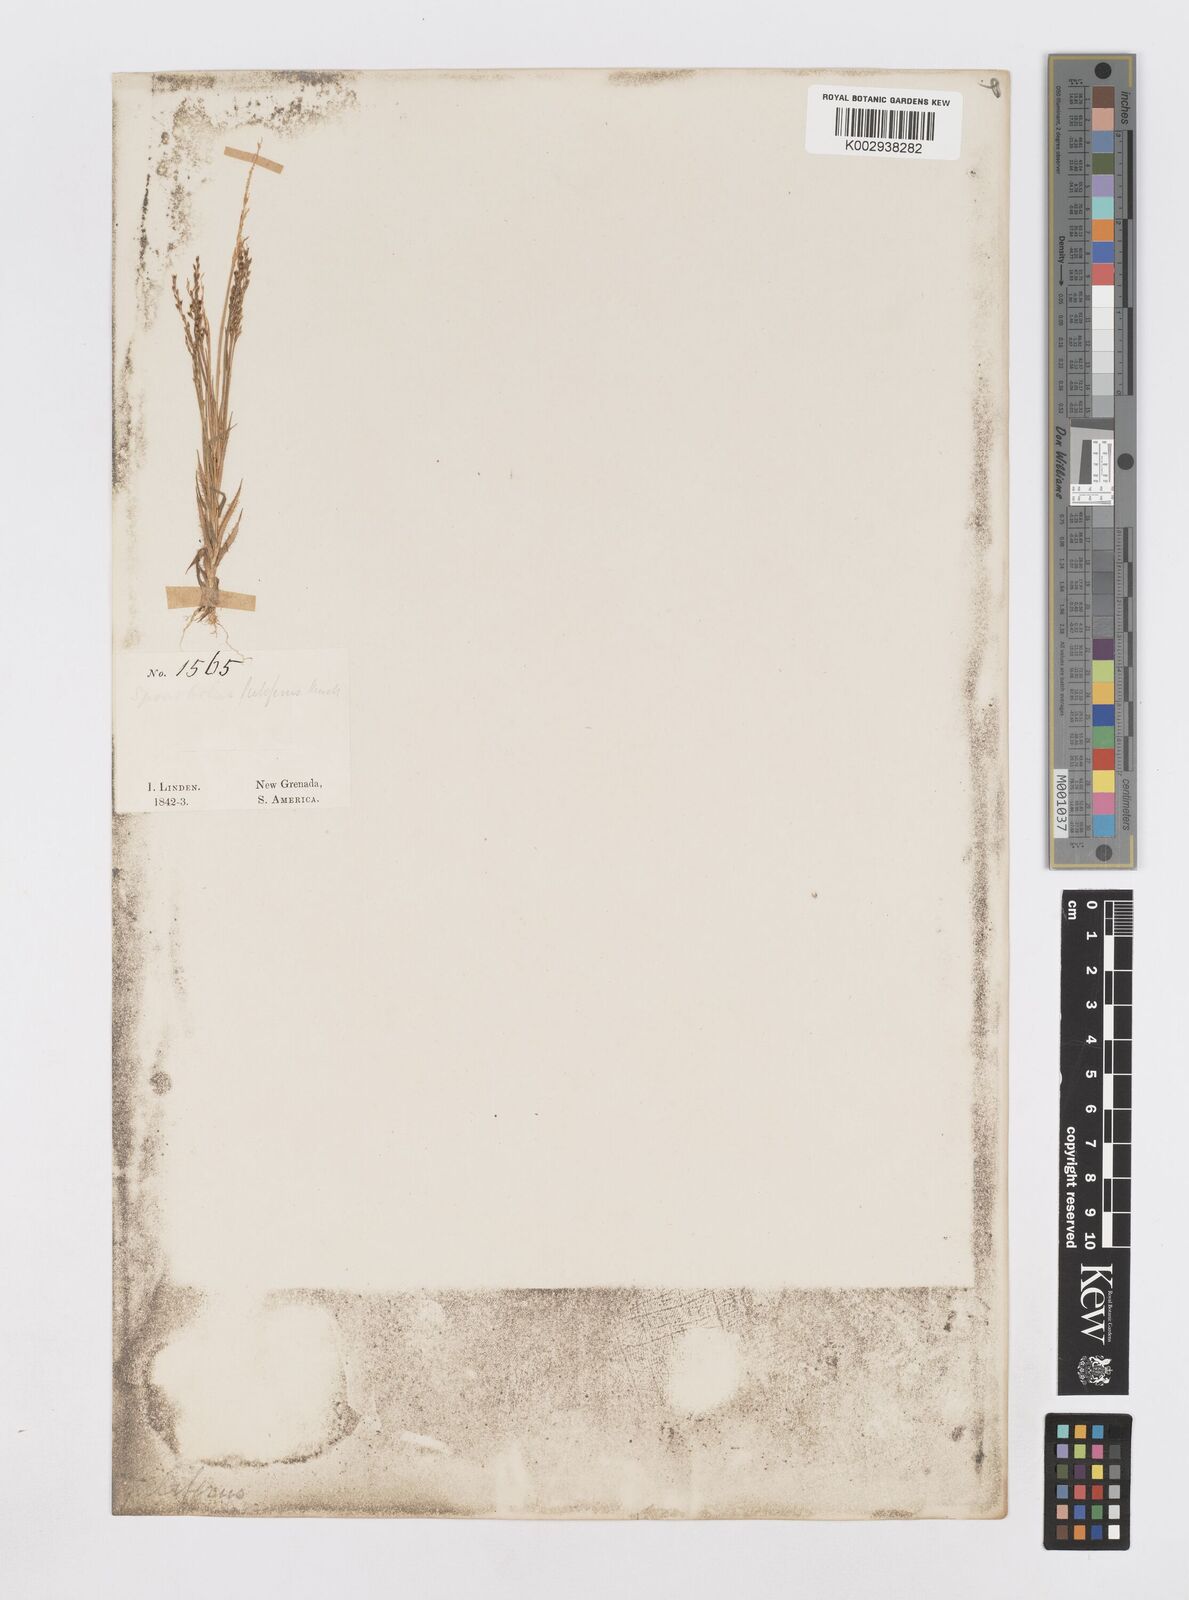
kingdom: Plantae
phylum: Tracheophyta
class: Liliopsida
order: Poales
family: Poaceae
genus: Sporobolus
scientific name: Sporobolus pilifer
